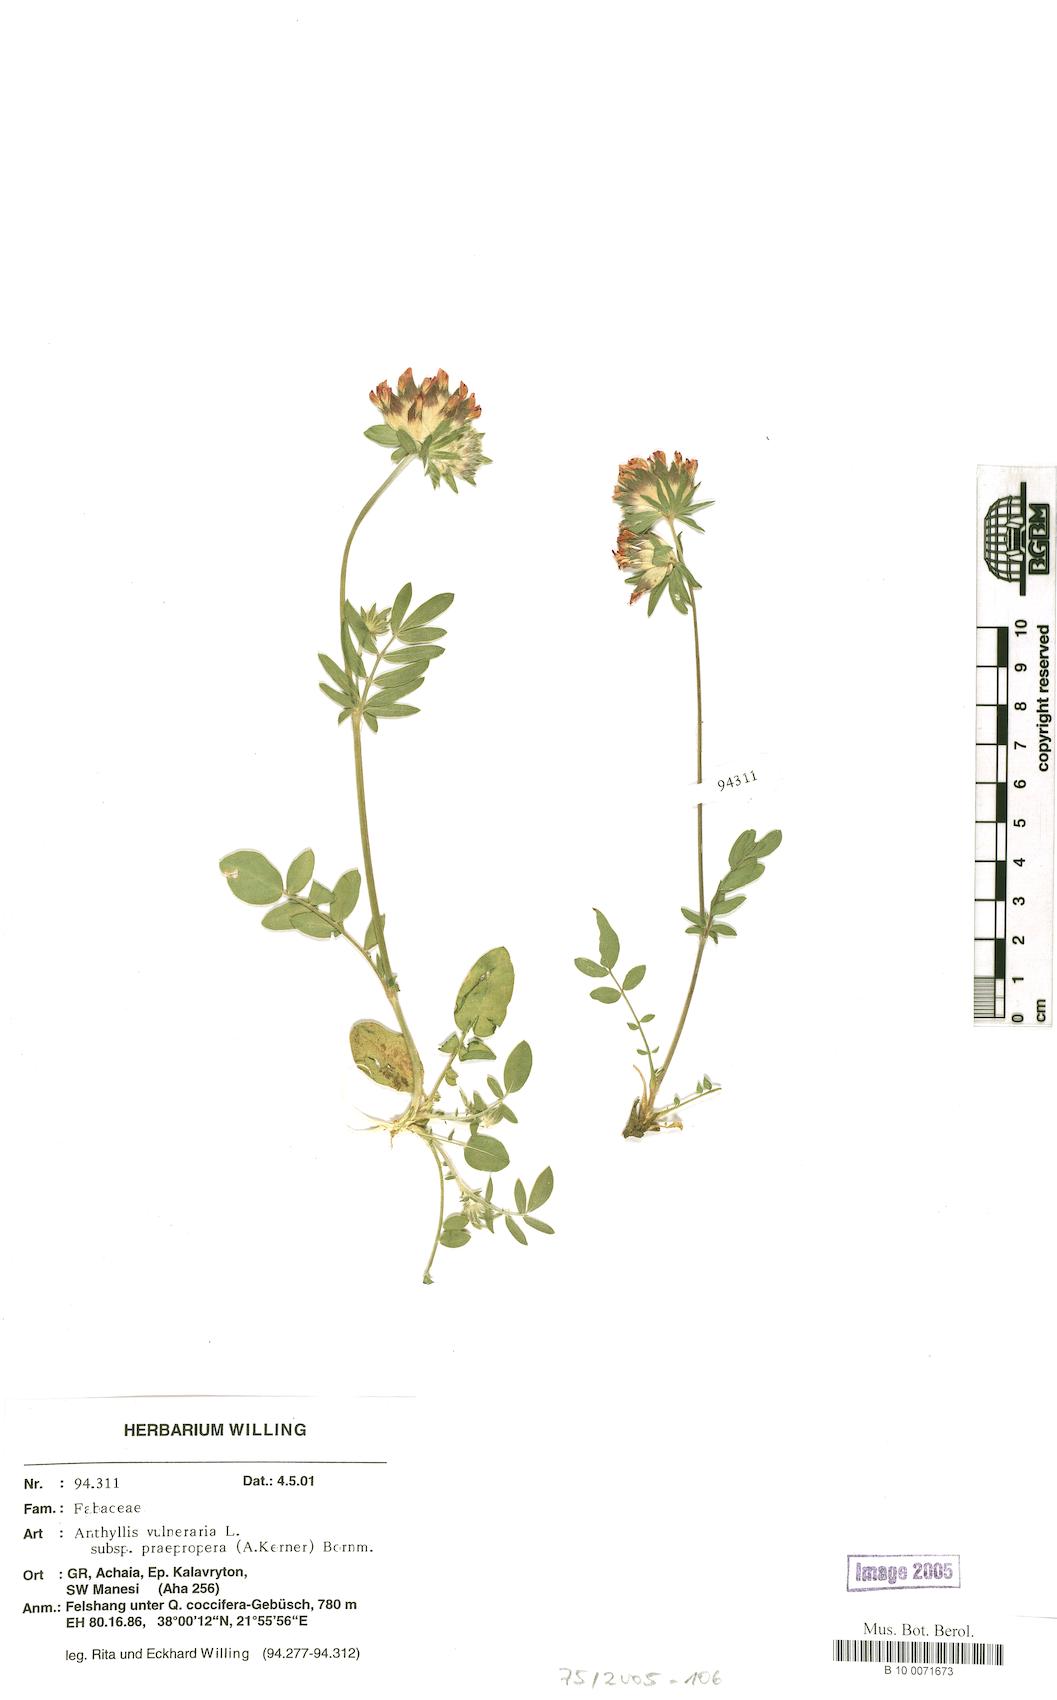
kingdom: Plantae
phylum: Tracheophyta
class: Magnoliopsida
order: Fabales
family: Fabaceae
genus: Anthyllis
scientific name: Anthyllis vulneraria
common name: Kidney vetch
